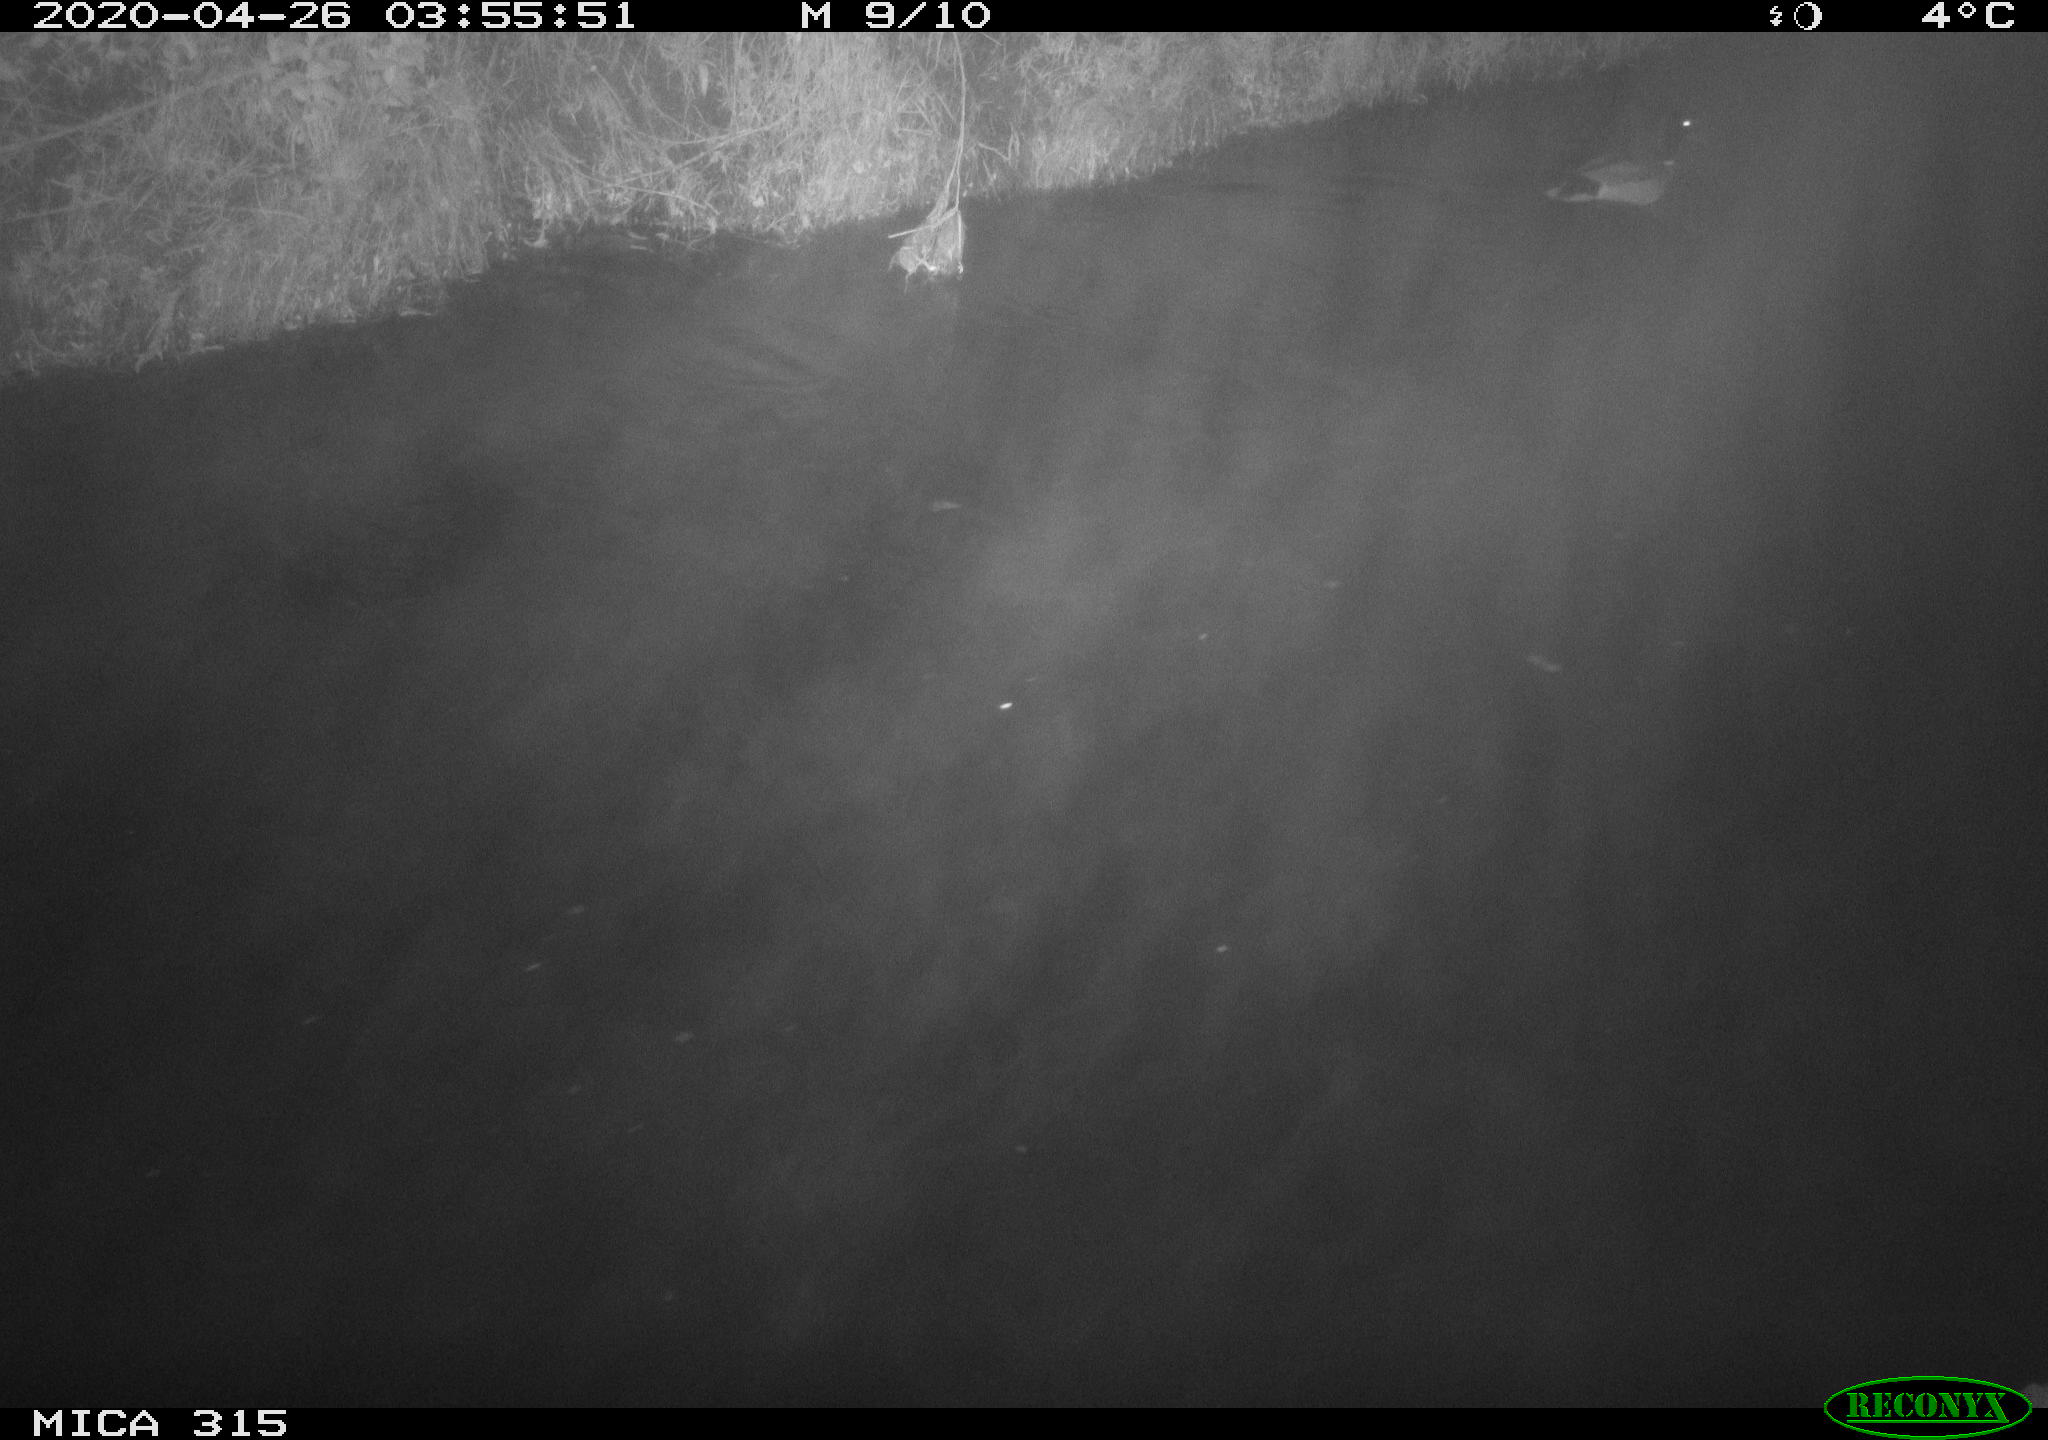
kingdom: Animalia
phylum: Chordata
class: Aves
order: Anseriformes
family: Anatidae
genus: Anas
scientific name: Anas platyrhynchos
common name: Mallard
